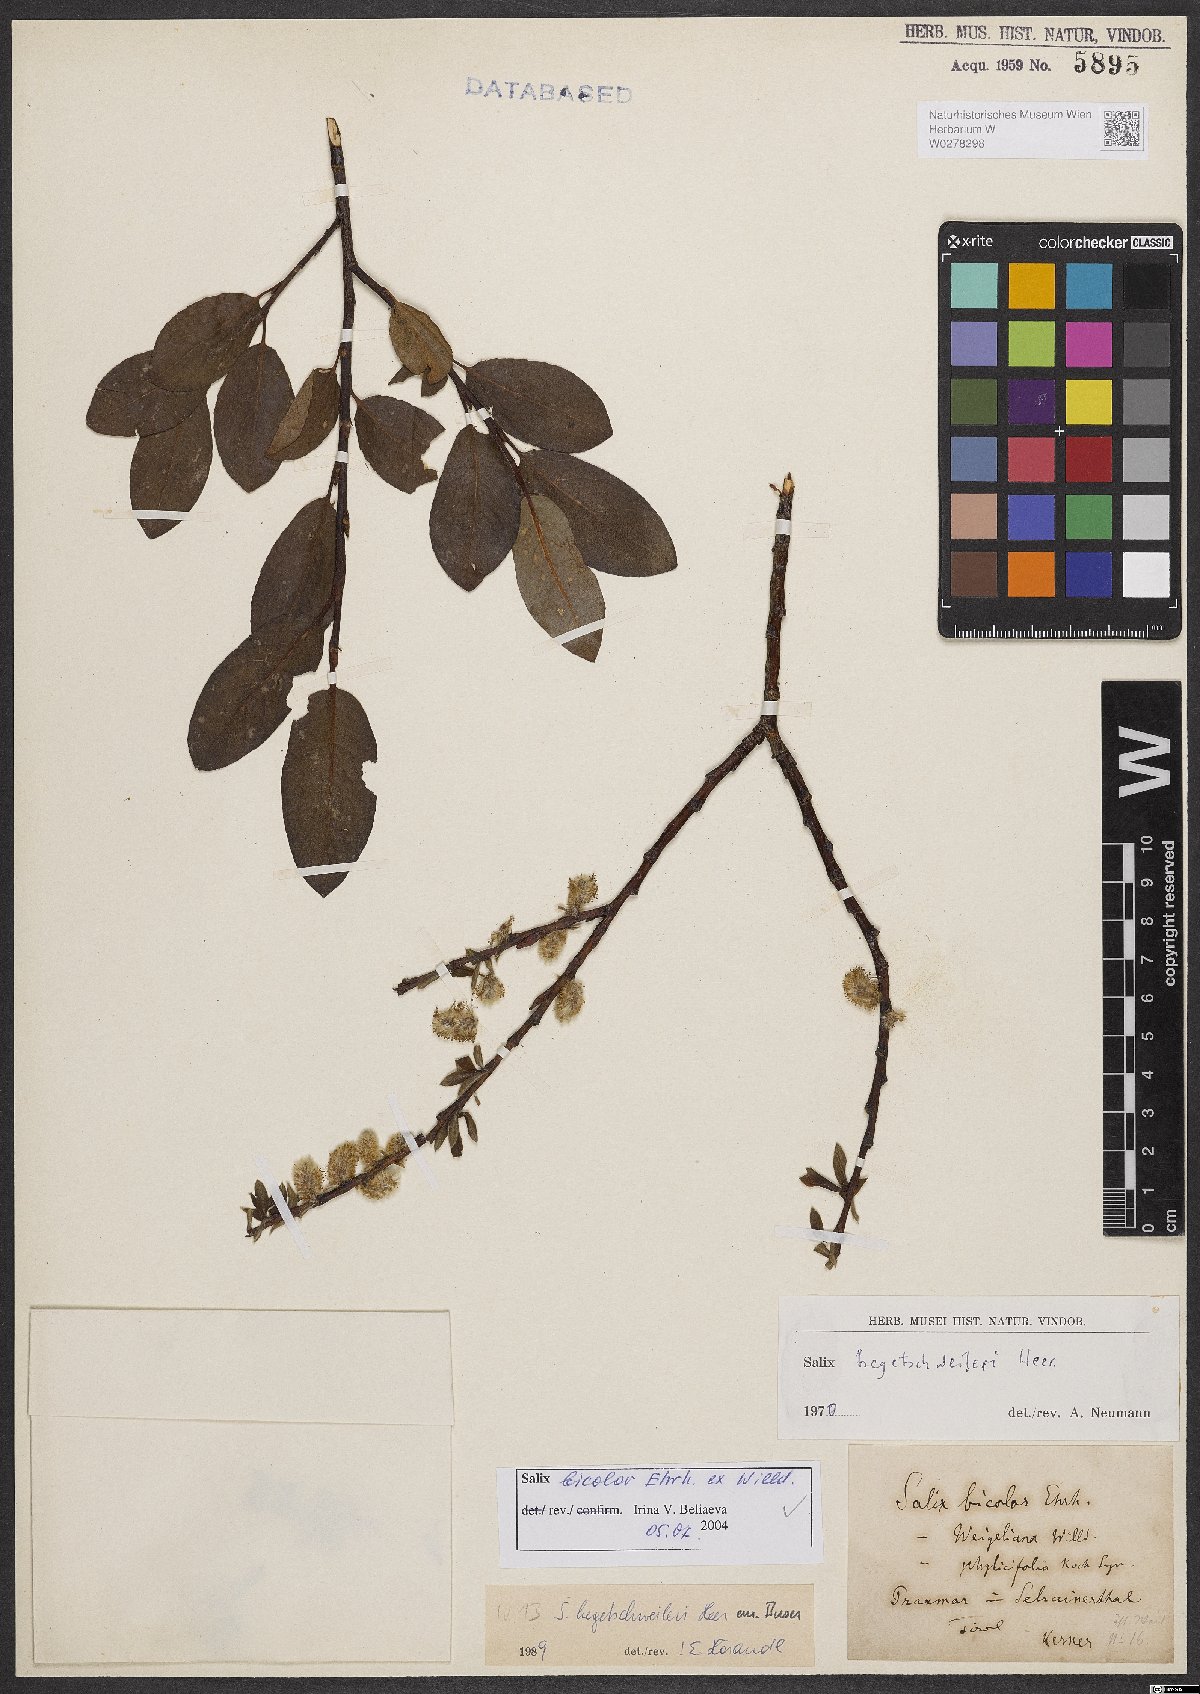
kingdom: Plantae
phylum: Tracheophyta
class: Magnoliopsida
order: Malpighiales
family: Salicaceae
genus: Salix
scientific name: Salix bicolor
